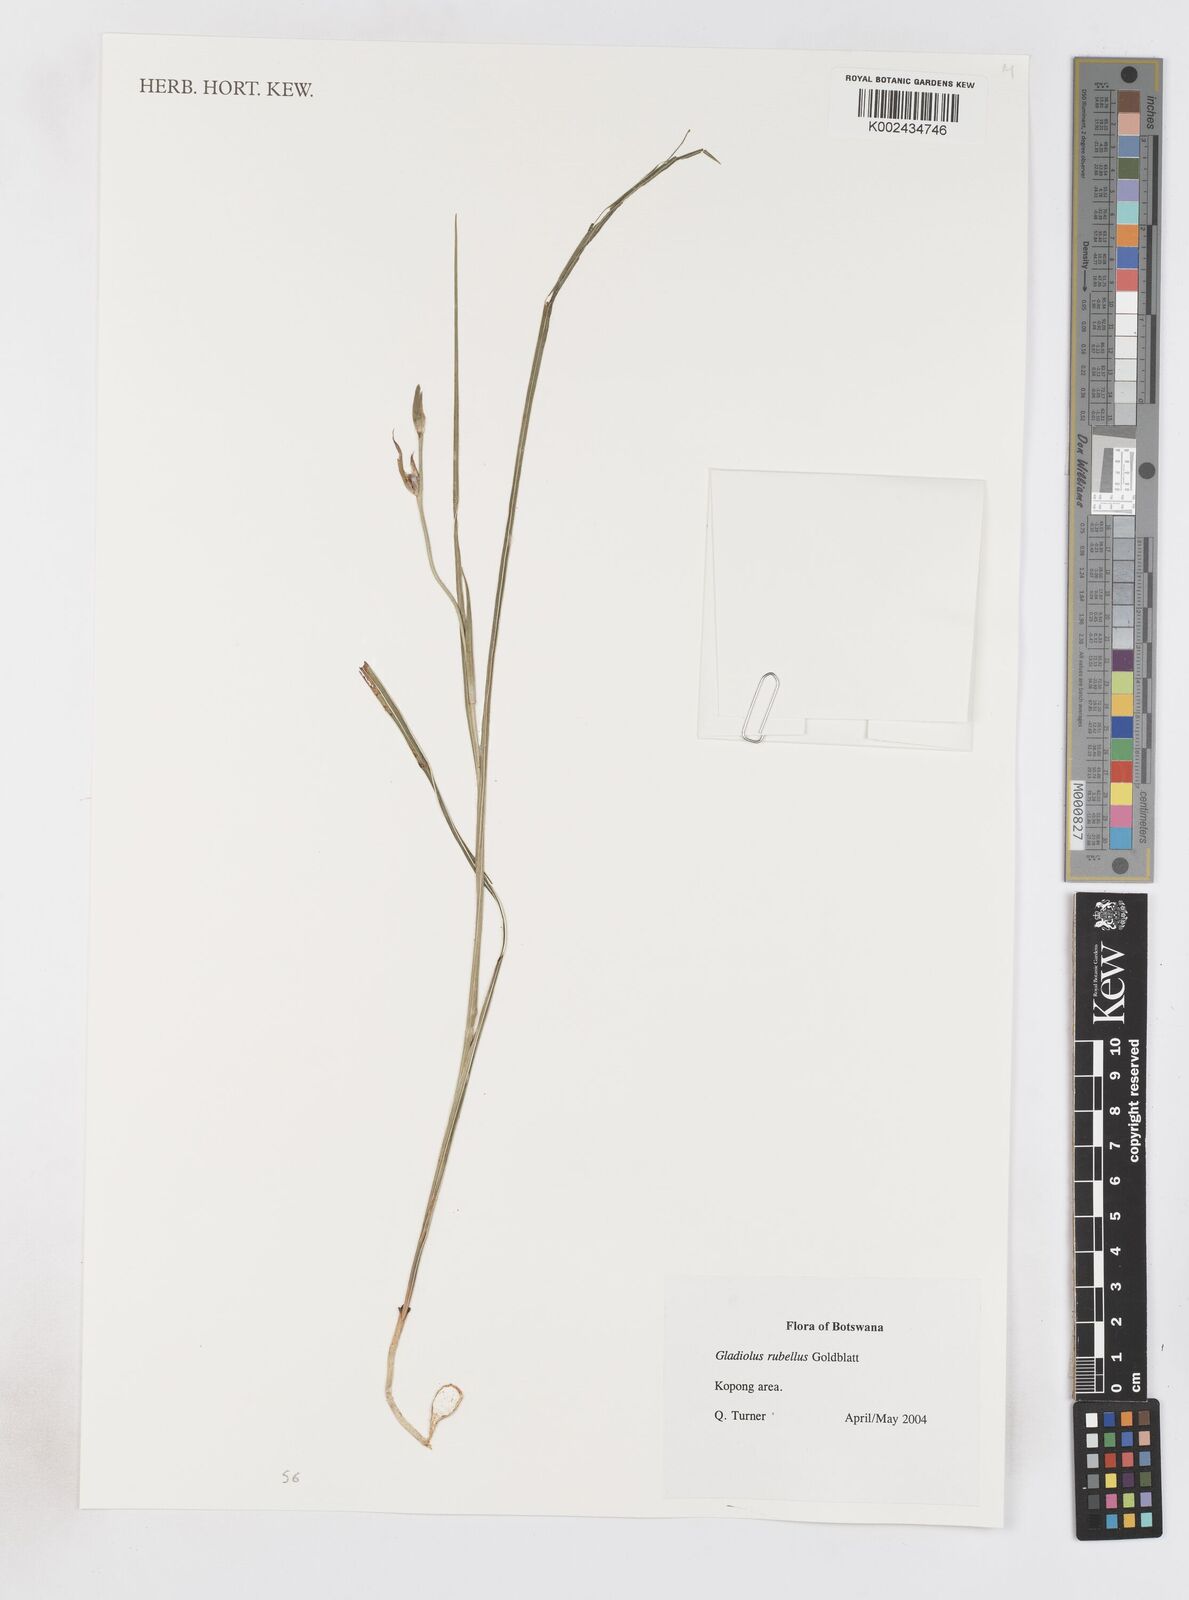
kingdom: Plantae
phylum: Tracheophyta
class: Liliopsida
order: Asparagales
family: Iridaceae
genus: Gladiolus
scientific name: Gladiolus rubellus
